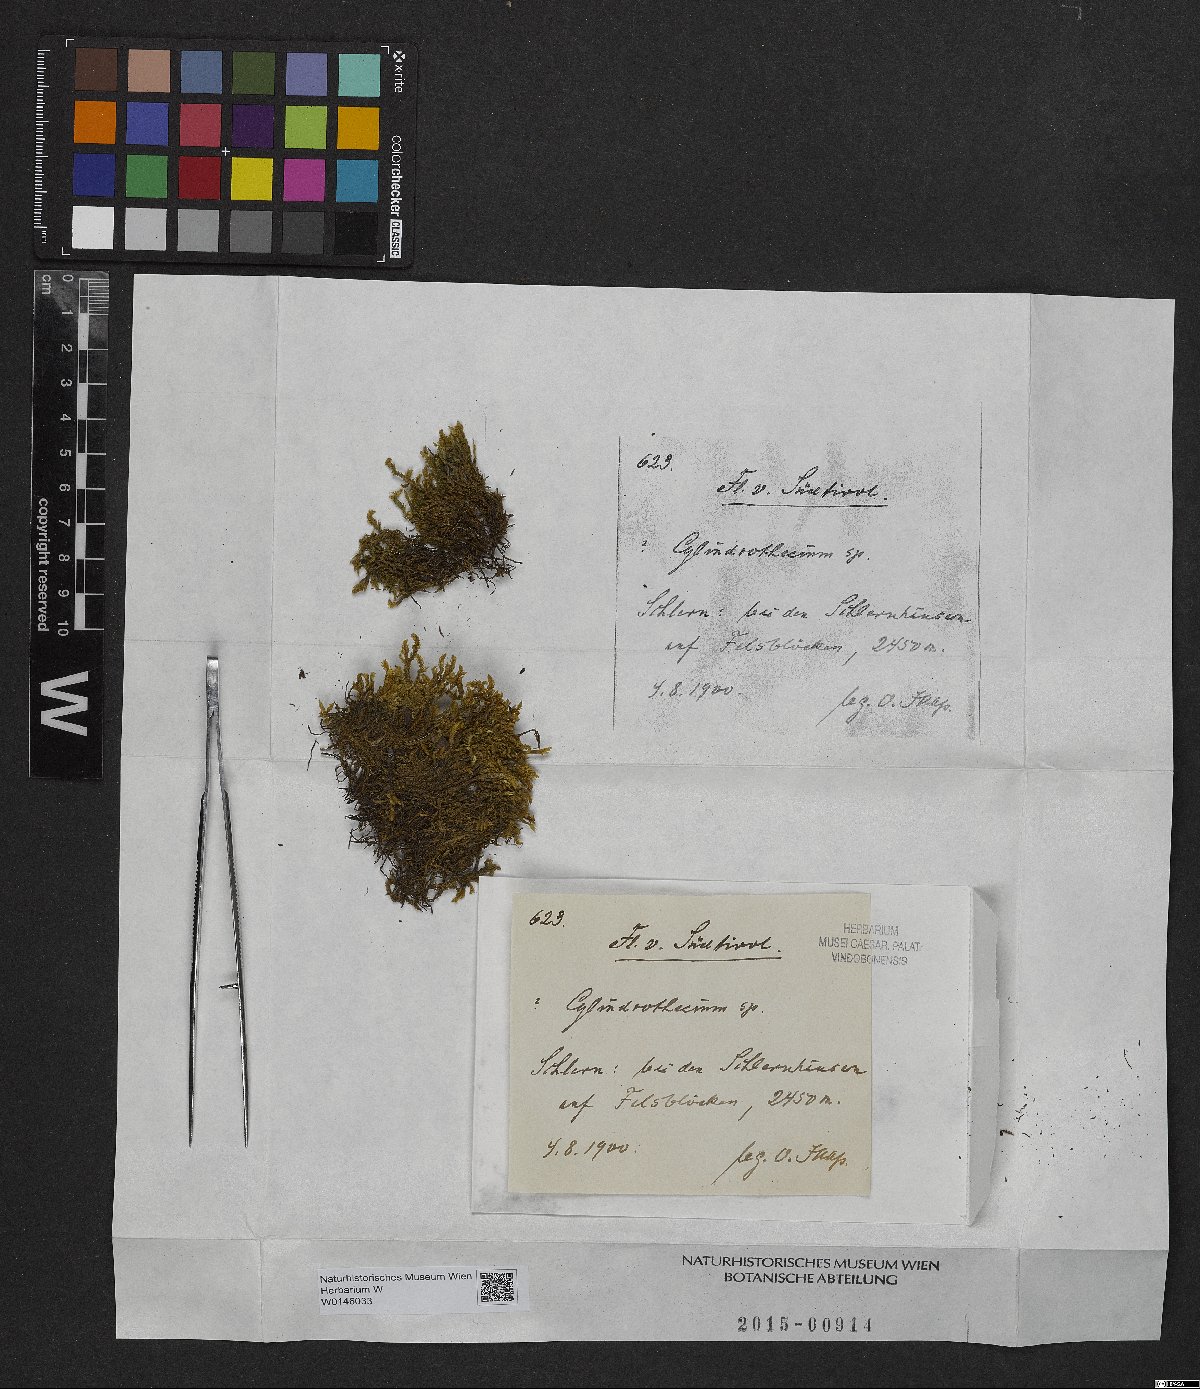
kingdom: Plantae
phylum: Bryophyta
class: Bryopsida
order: Hypnales
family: Entodontaceae
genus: Entodon
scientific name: Entodon
